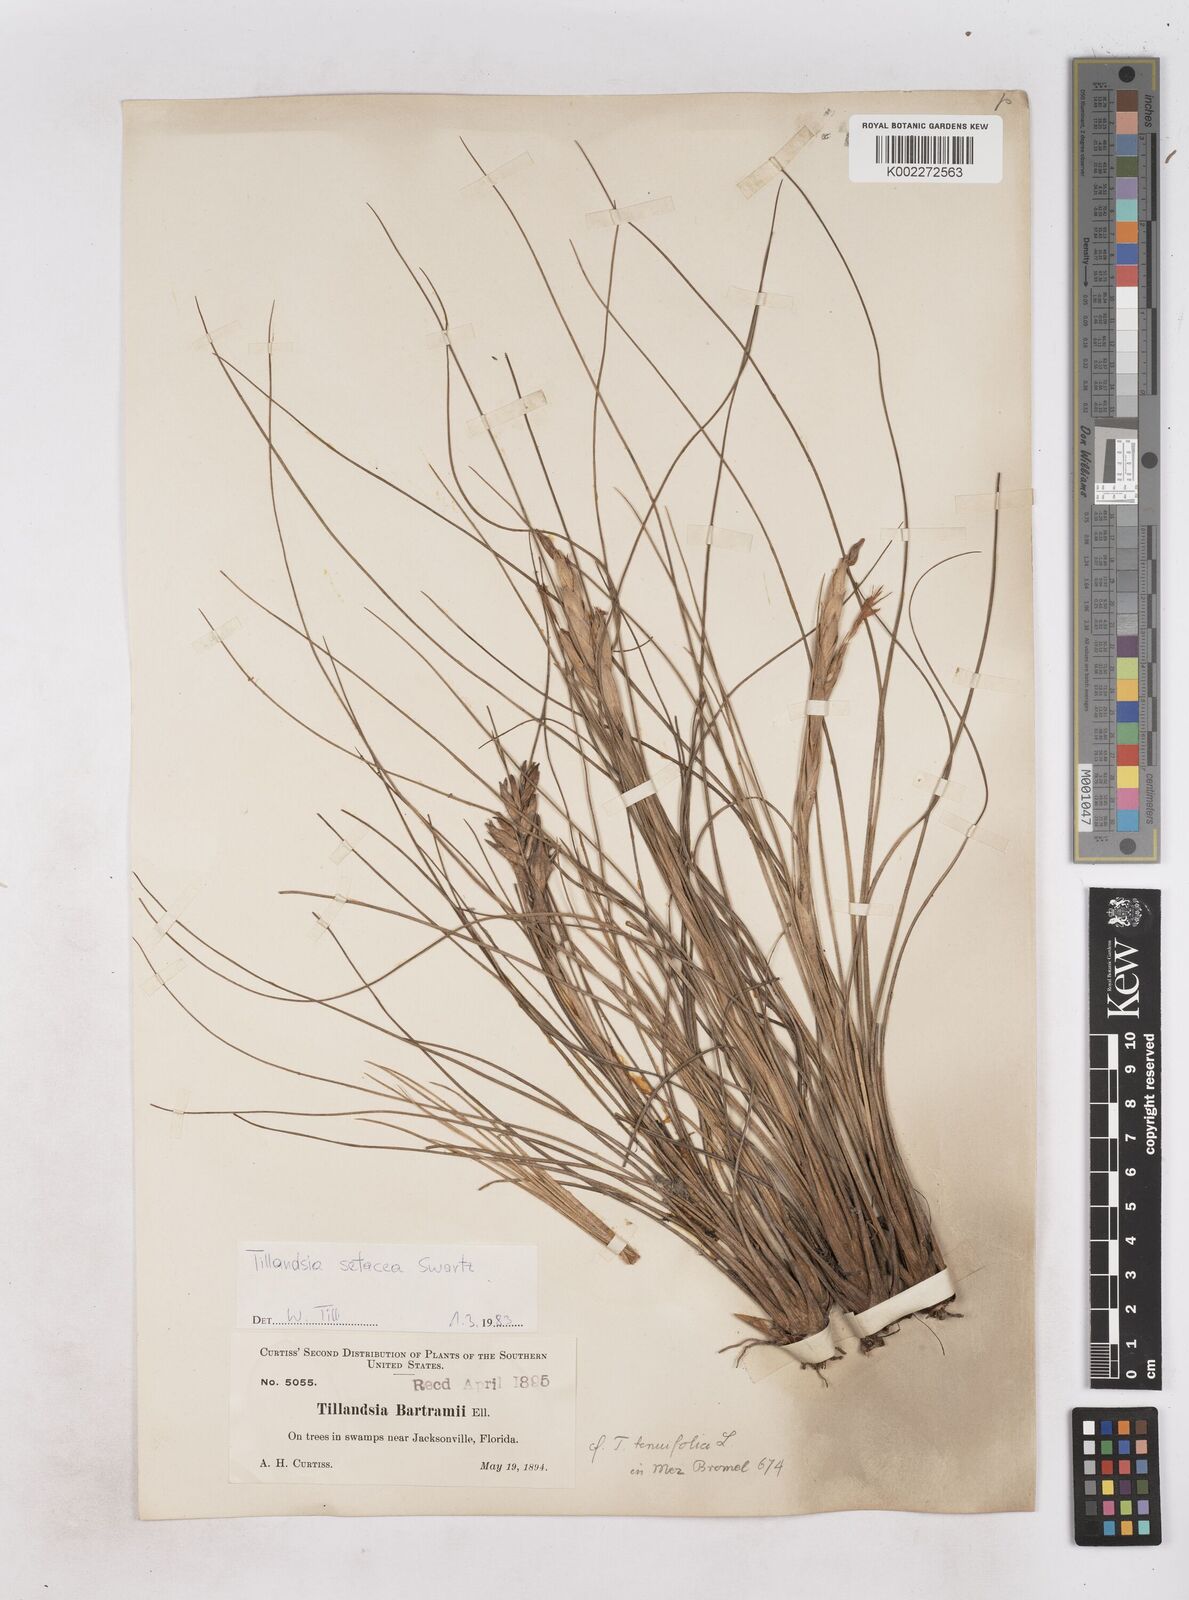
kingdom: Plantae
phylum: Tracheophyta
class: Liliopsida
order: Poales
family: Bromeliaceae
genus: Tillandsia
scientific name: Tillandsia
